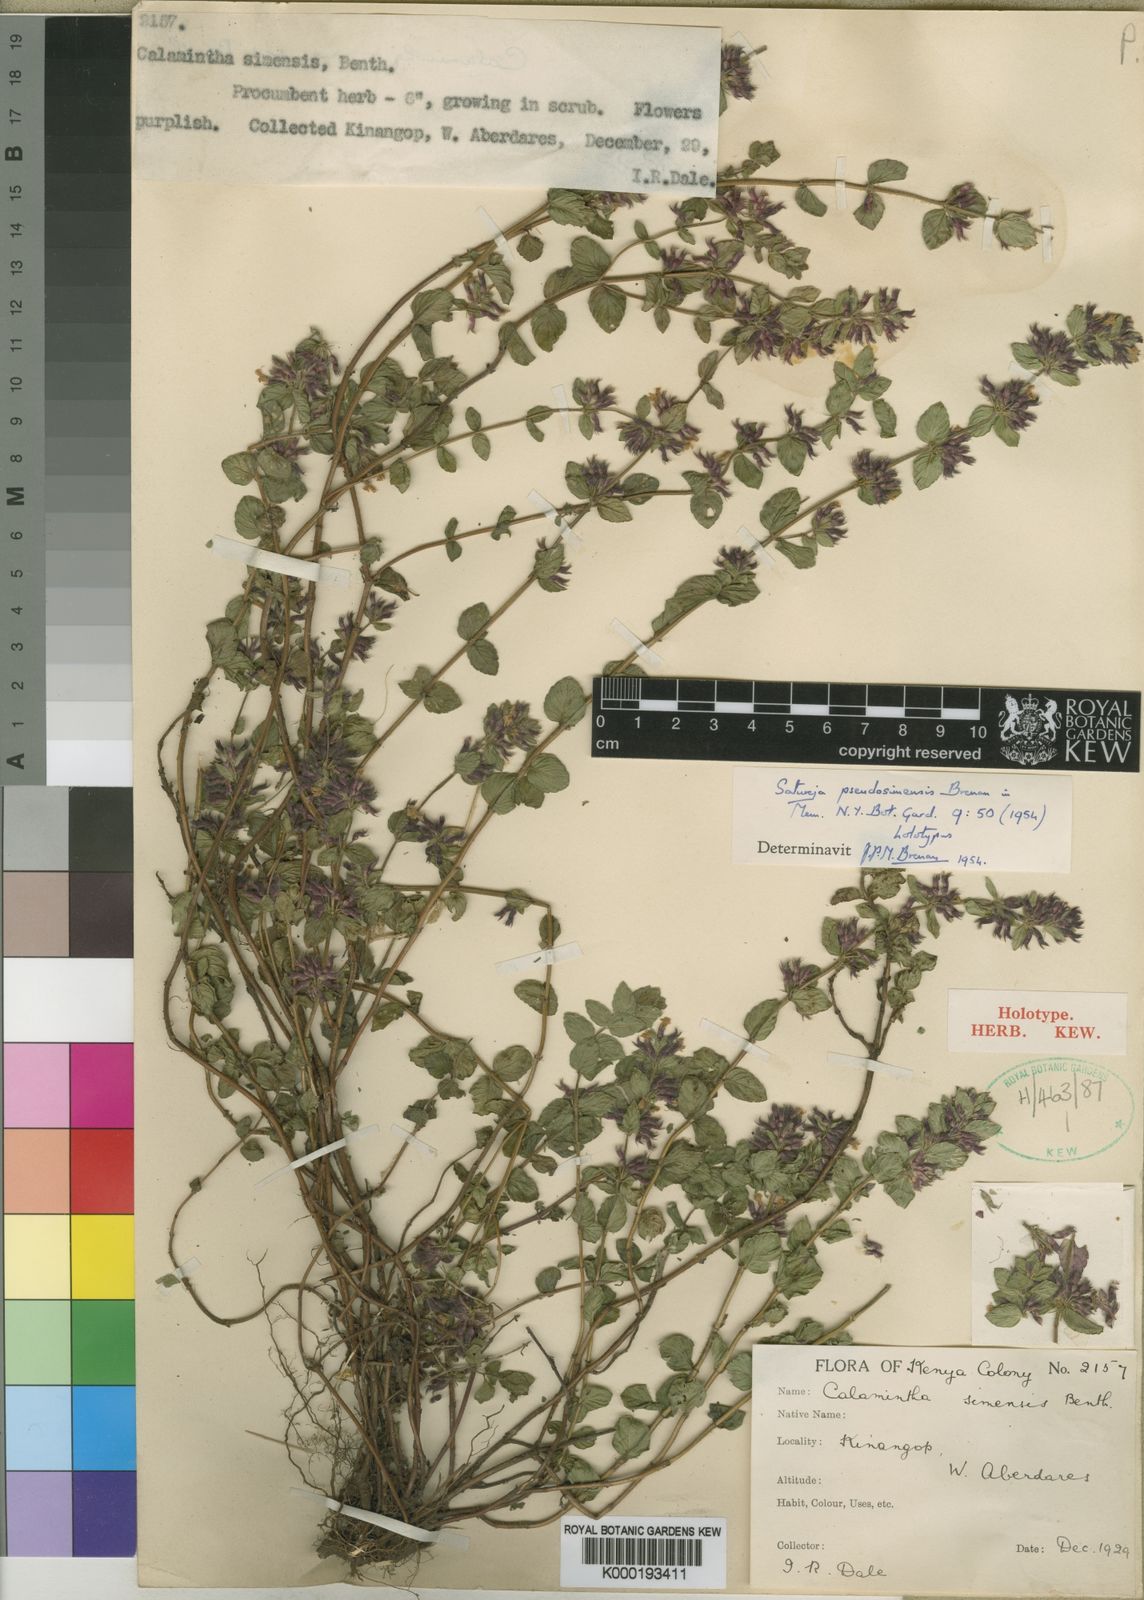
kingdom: Plantae
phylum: Tracheophyta
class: Magnoliopsida
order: Lamiales
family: Lamiaceae
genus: Clinopodium
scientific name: Clinopodium
